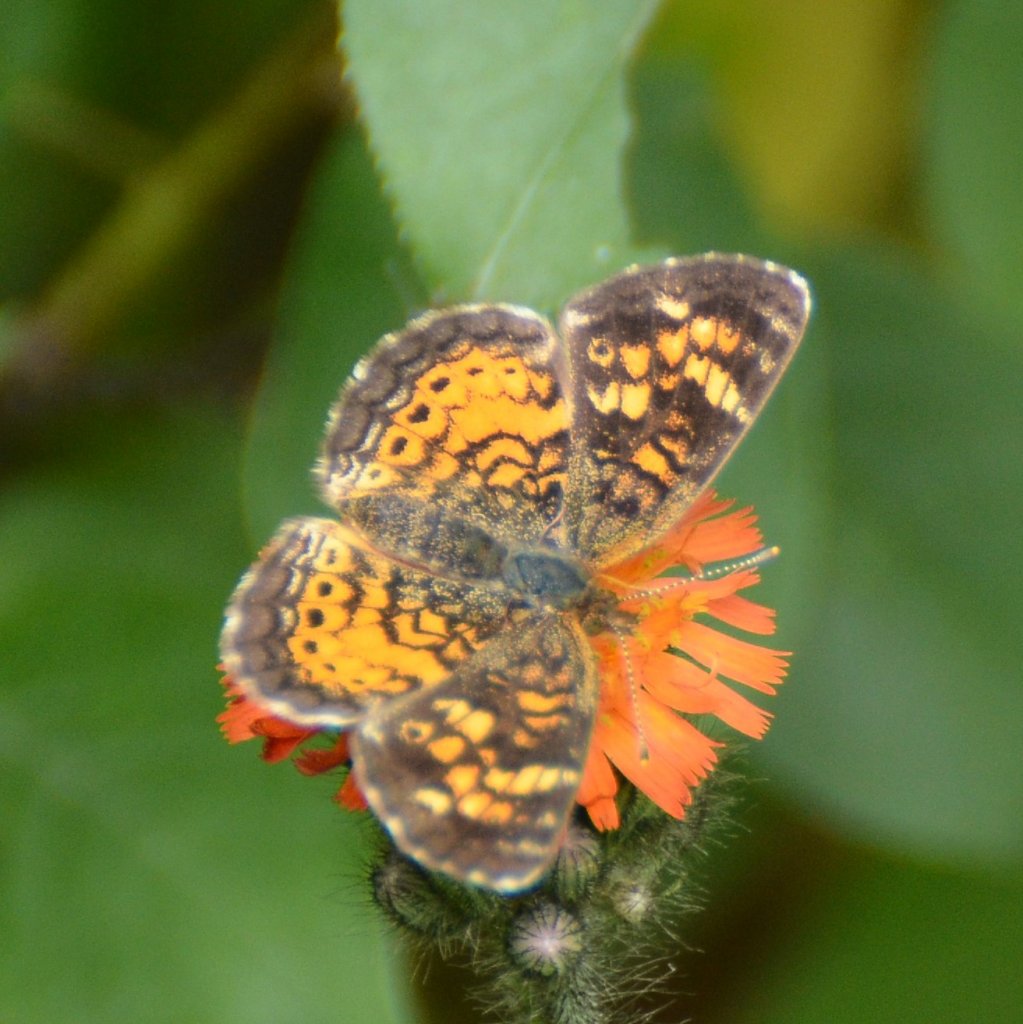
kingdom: Animalia
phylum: Arthropoda
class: Insecta
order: Lepidoptera
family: Nymphalidae
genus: Phyciodes
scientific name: Phyciodes tharos
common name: Northern Crescent
